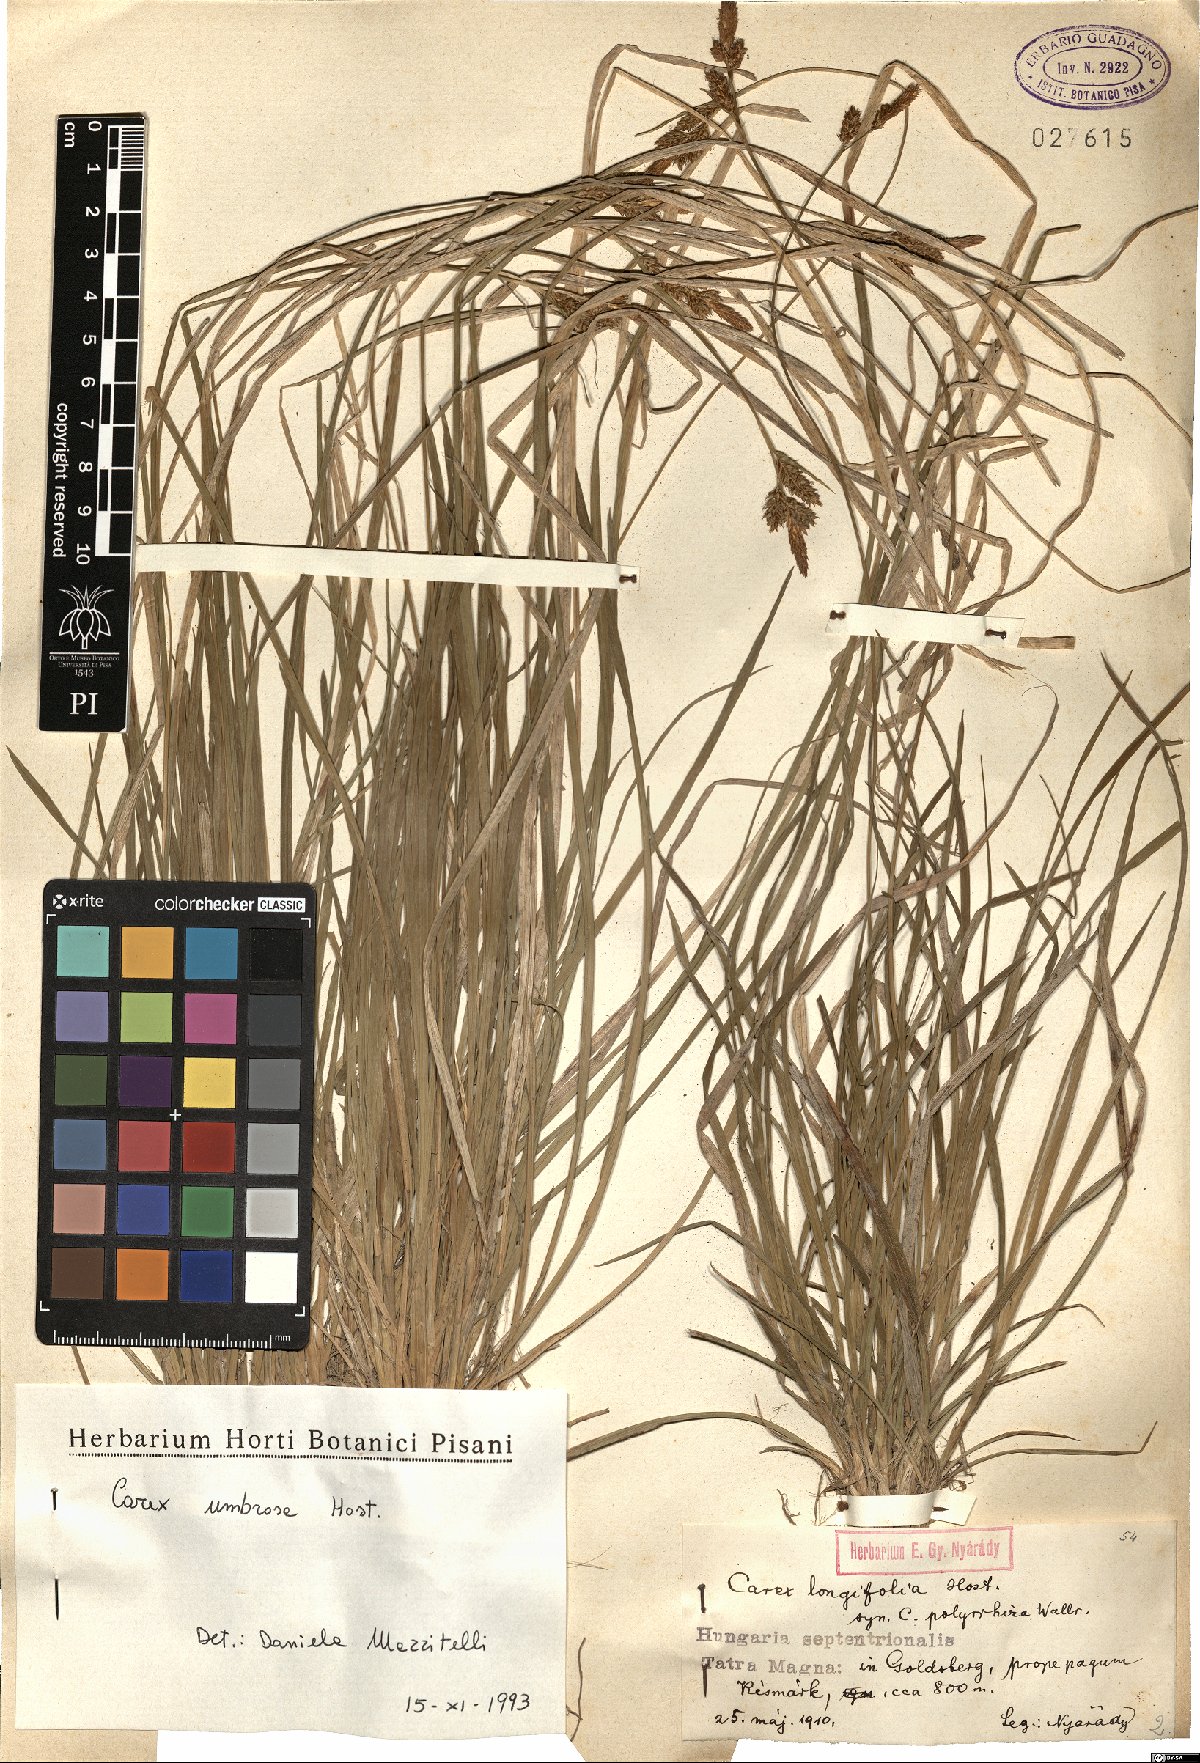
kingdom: Plantae
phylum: Tracheophyta
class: Liliopsida
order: Poales
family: Cyperaceae
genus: Carex
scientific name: Carex umbrosa
